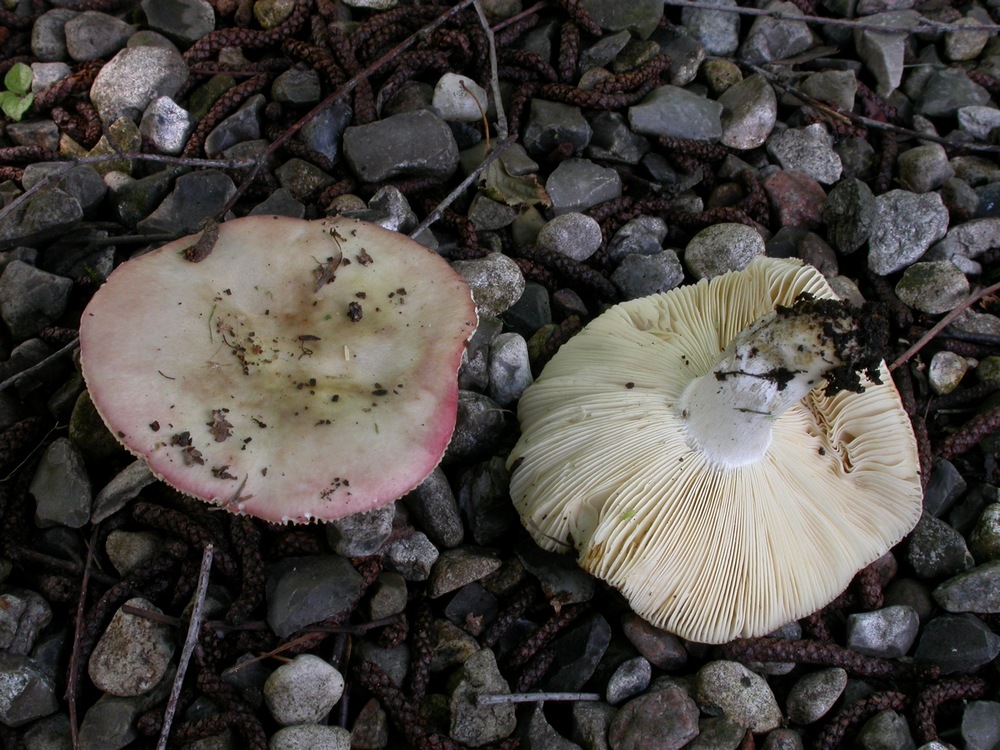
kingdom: Fungi
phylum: Basidiomycota
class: Agaricomycetes
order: Russulales
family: Russulaceae
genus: Russula
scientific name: Russula depallens
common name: falmende skørhat
